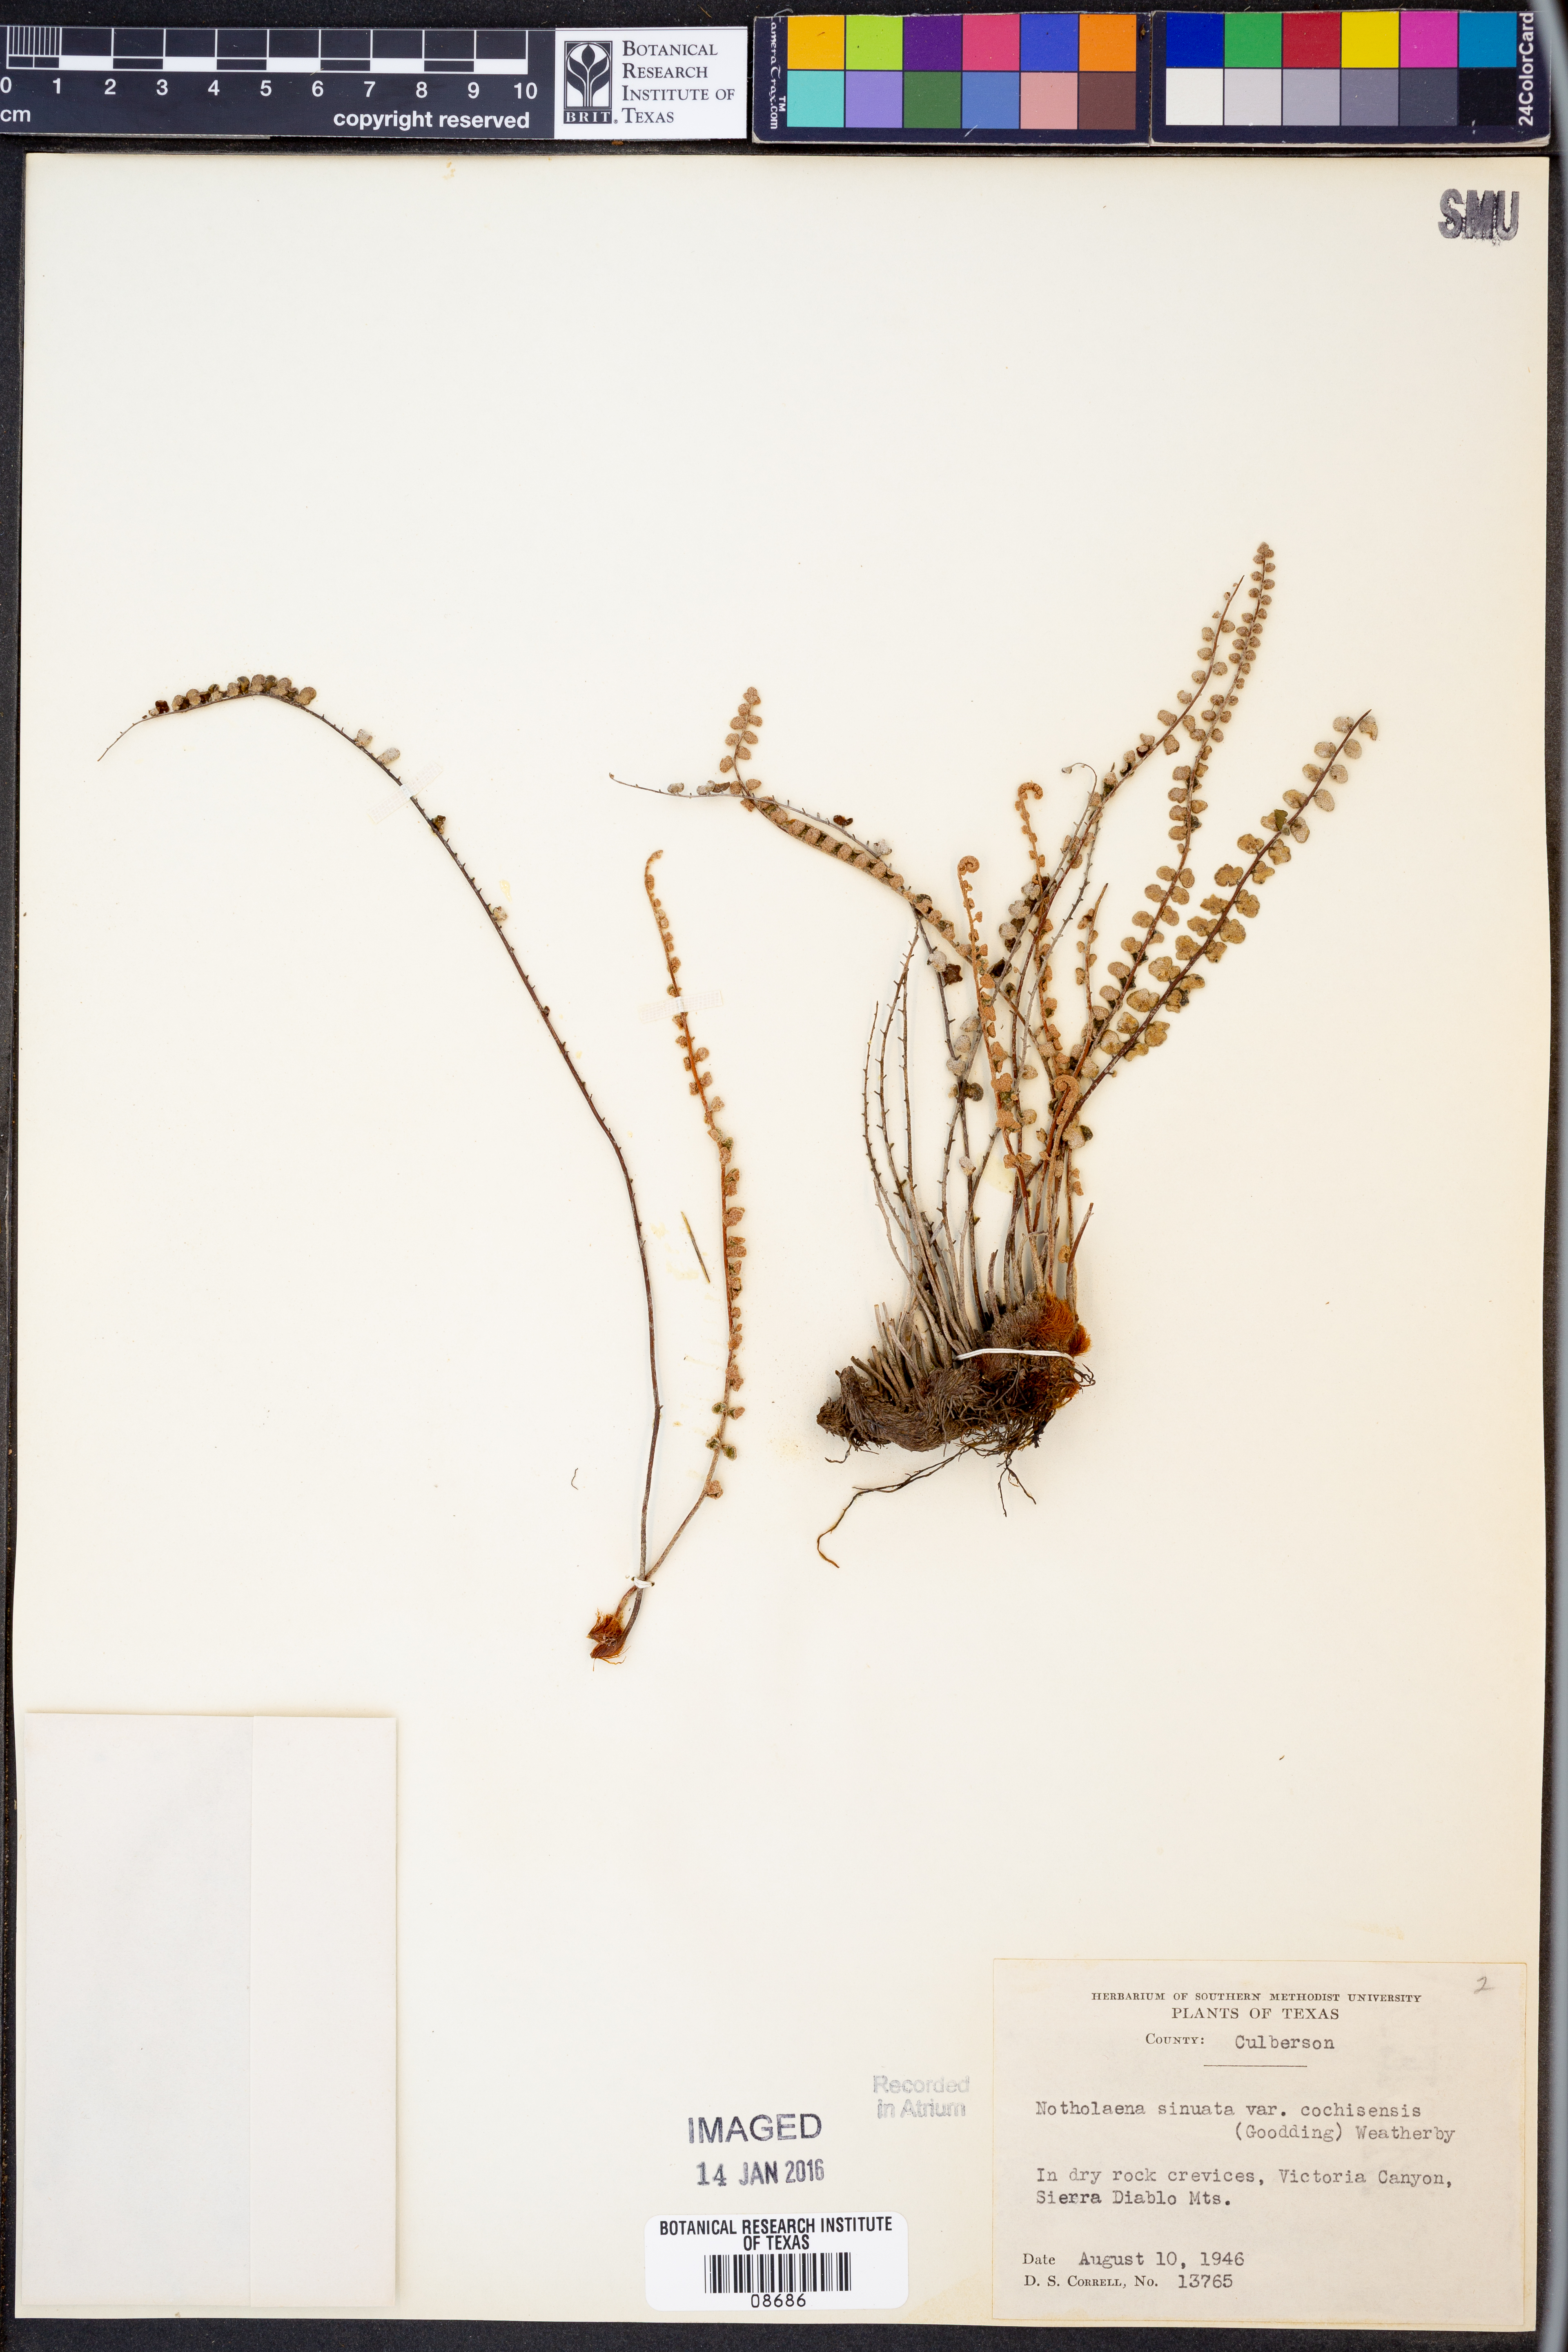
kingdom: Plantae
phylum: Tracheophyta
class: Polypodiopsida
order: Polypodiales
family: Pteridaceae
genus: Astrolepis
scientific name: Astrolepis cochisensis
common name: Scaly cloak fern
